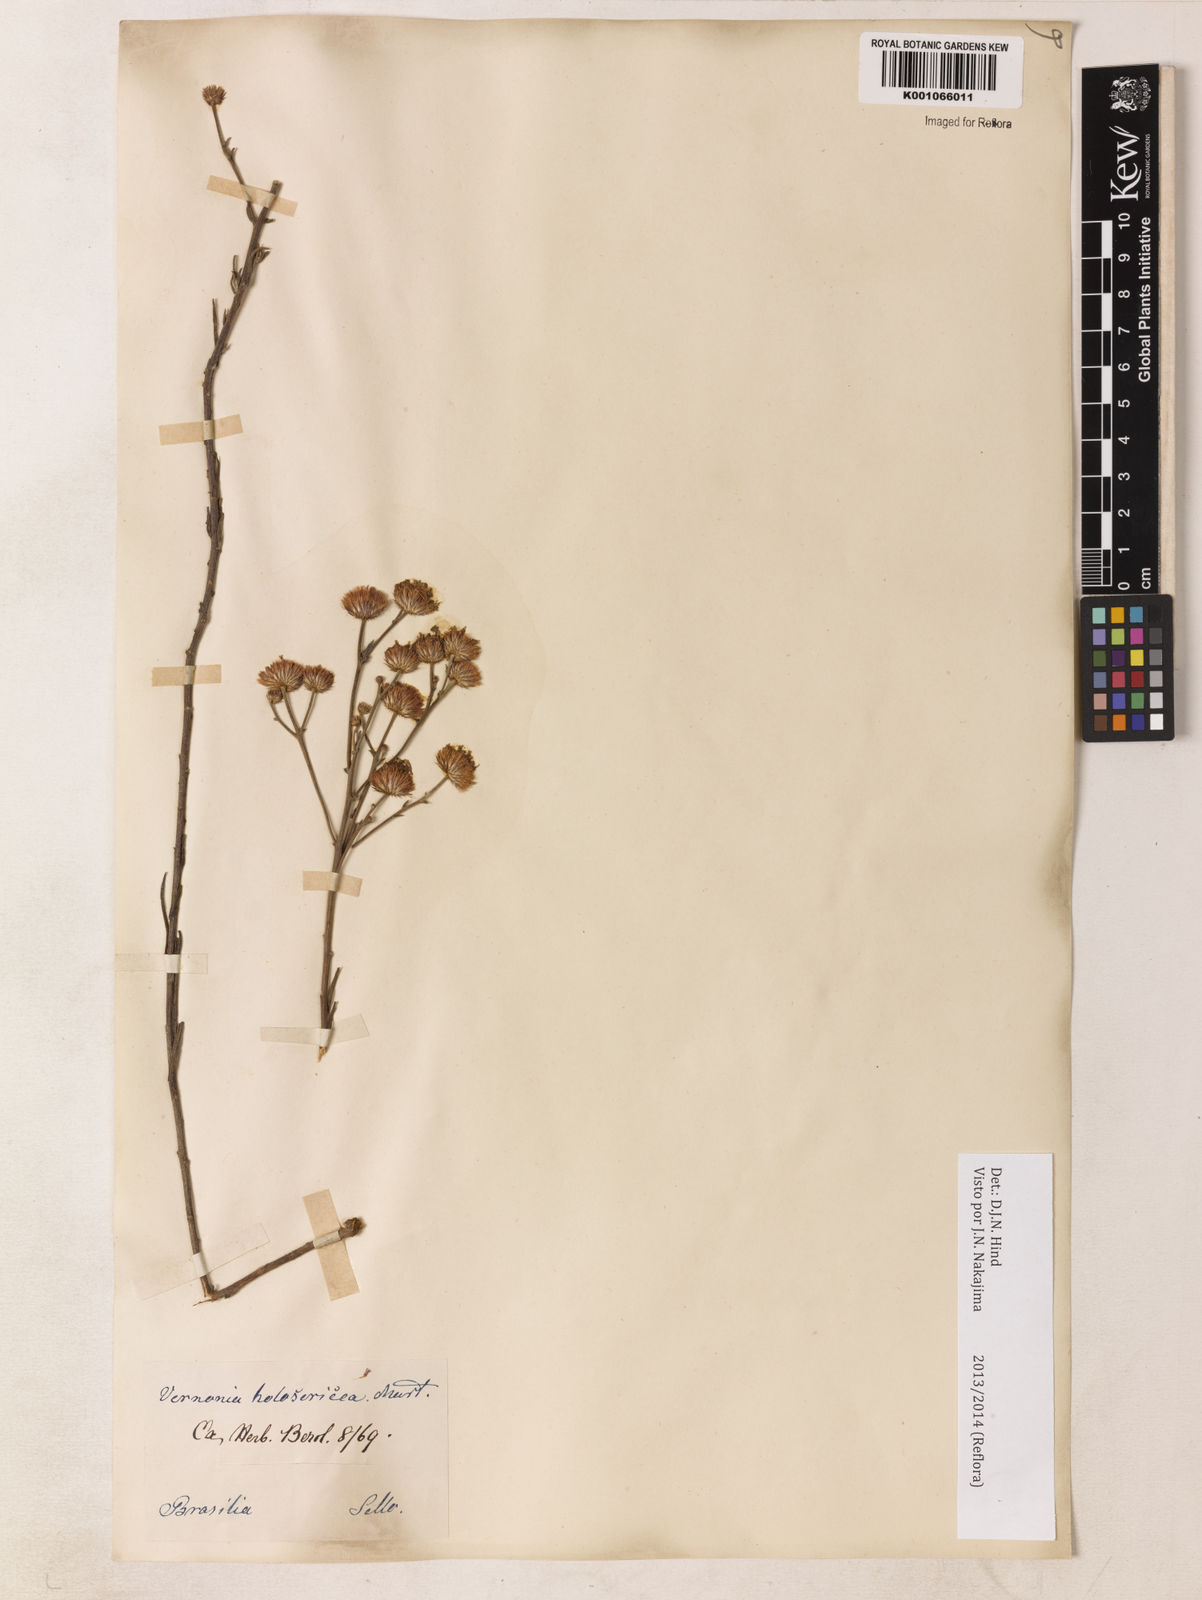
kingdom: Plantae
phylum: Tracheophyta
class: Magnoliopsida
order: Asterales
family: Asteraceae
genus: Echinocoryne
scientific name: Echinocoryne holosericea
